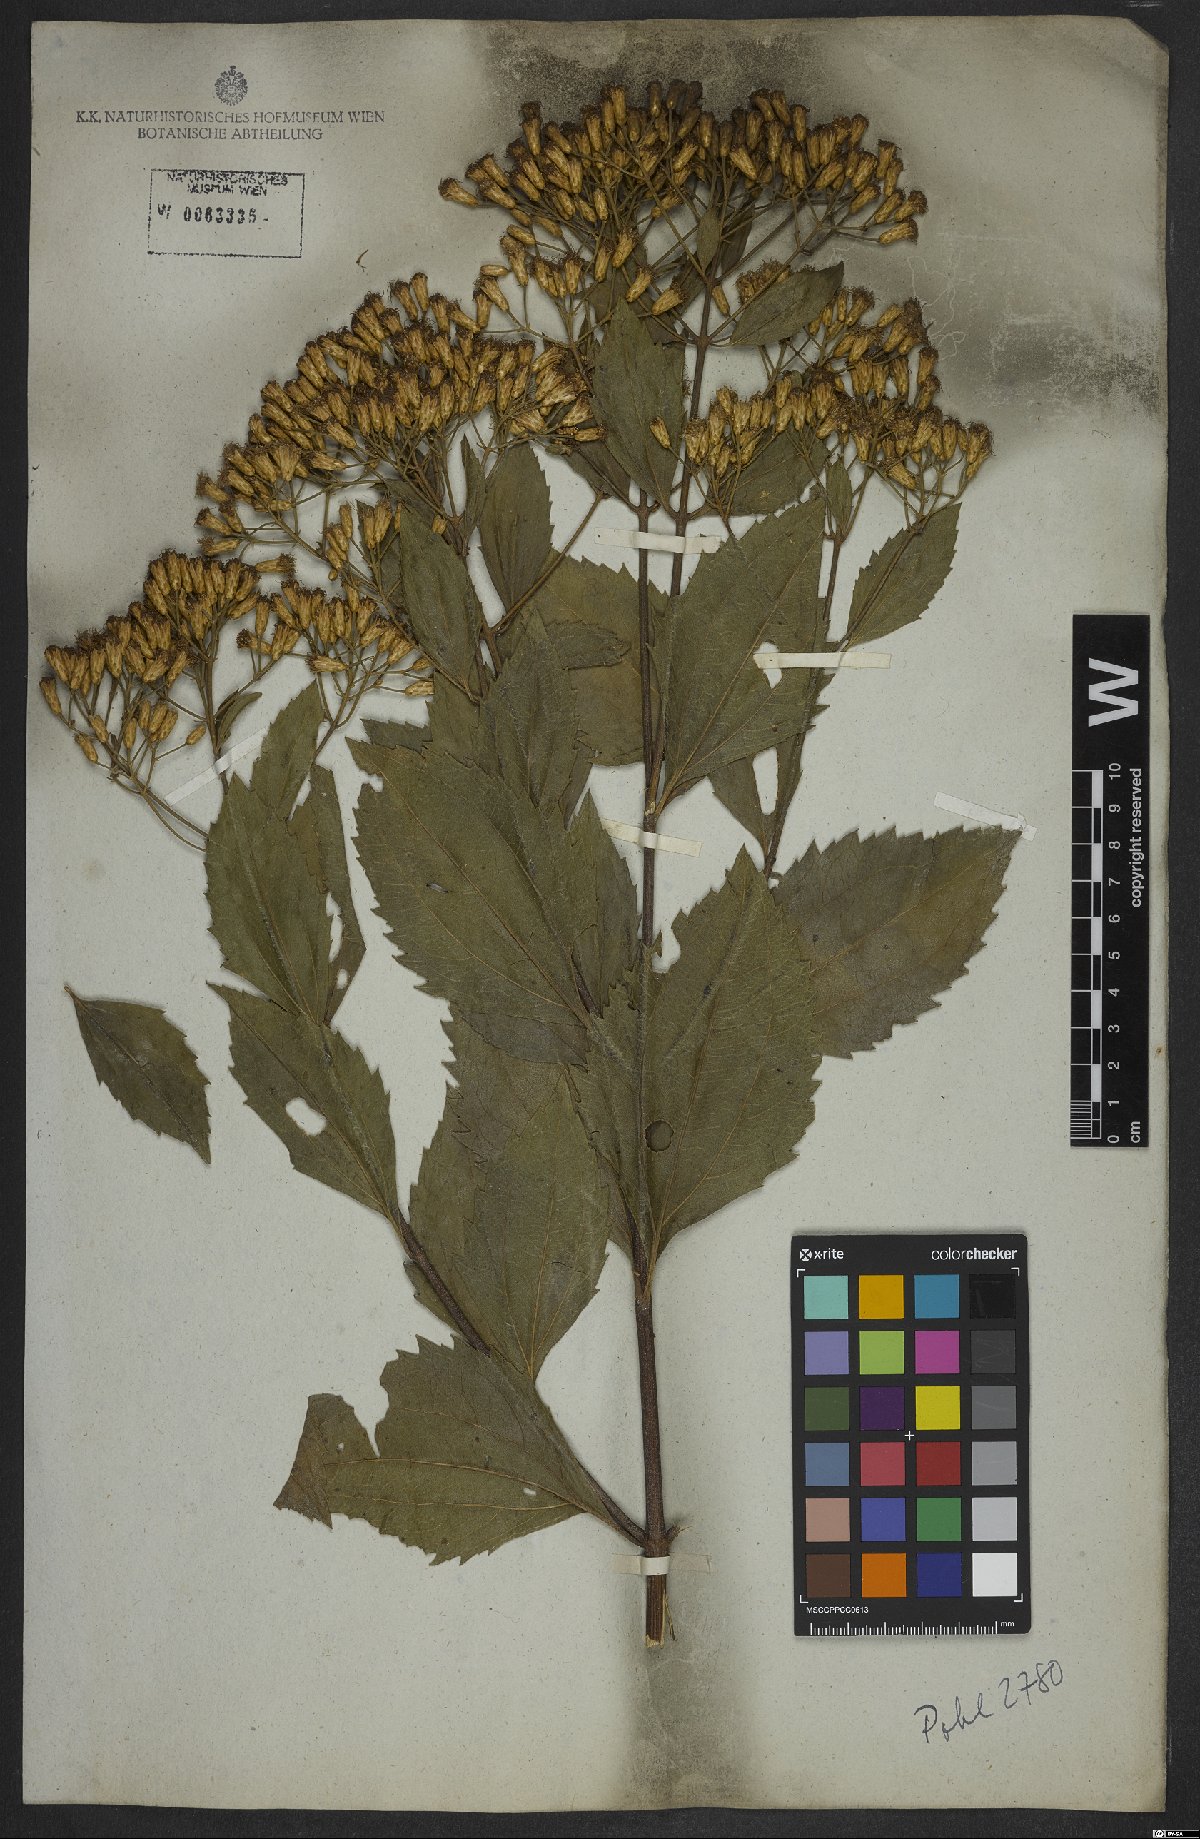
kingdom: Plantae
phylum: Tracheophyta
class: Magnoliopsida
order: Asterales
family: Asteraceae
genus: Eupatorium
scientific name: Eupatorium laevigatum
